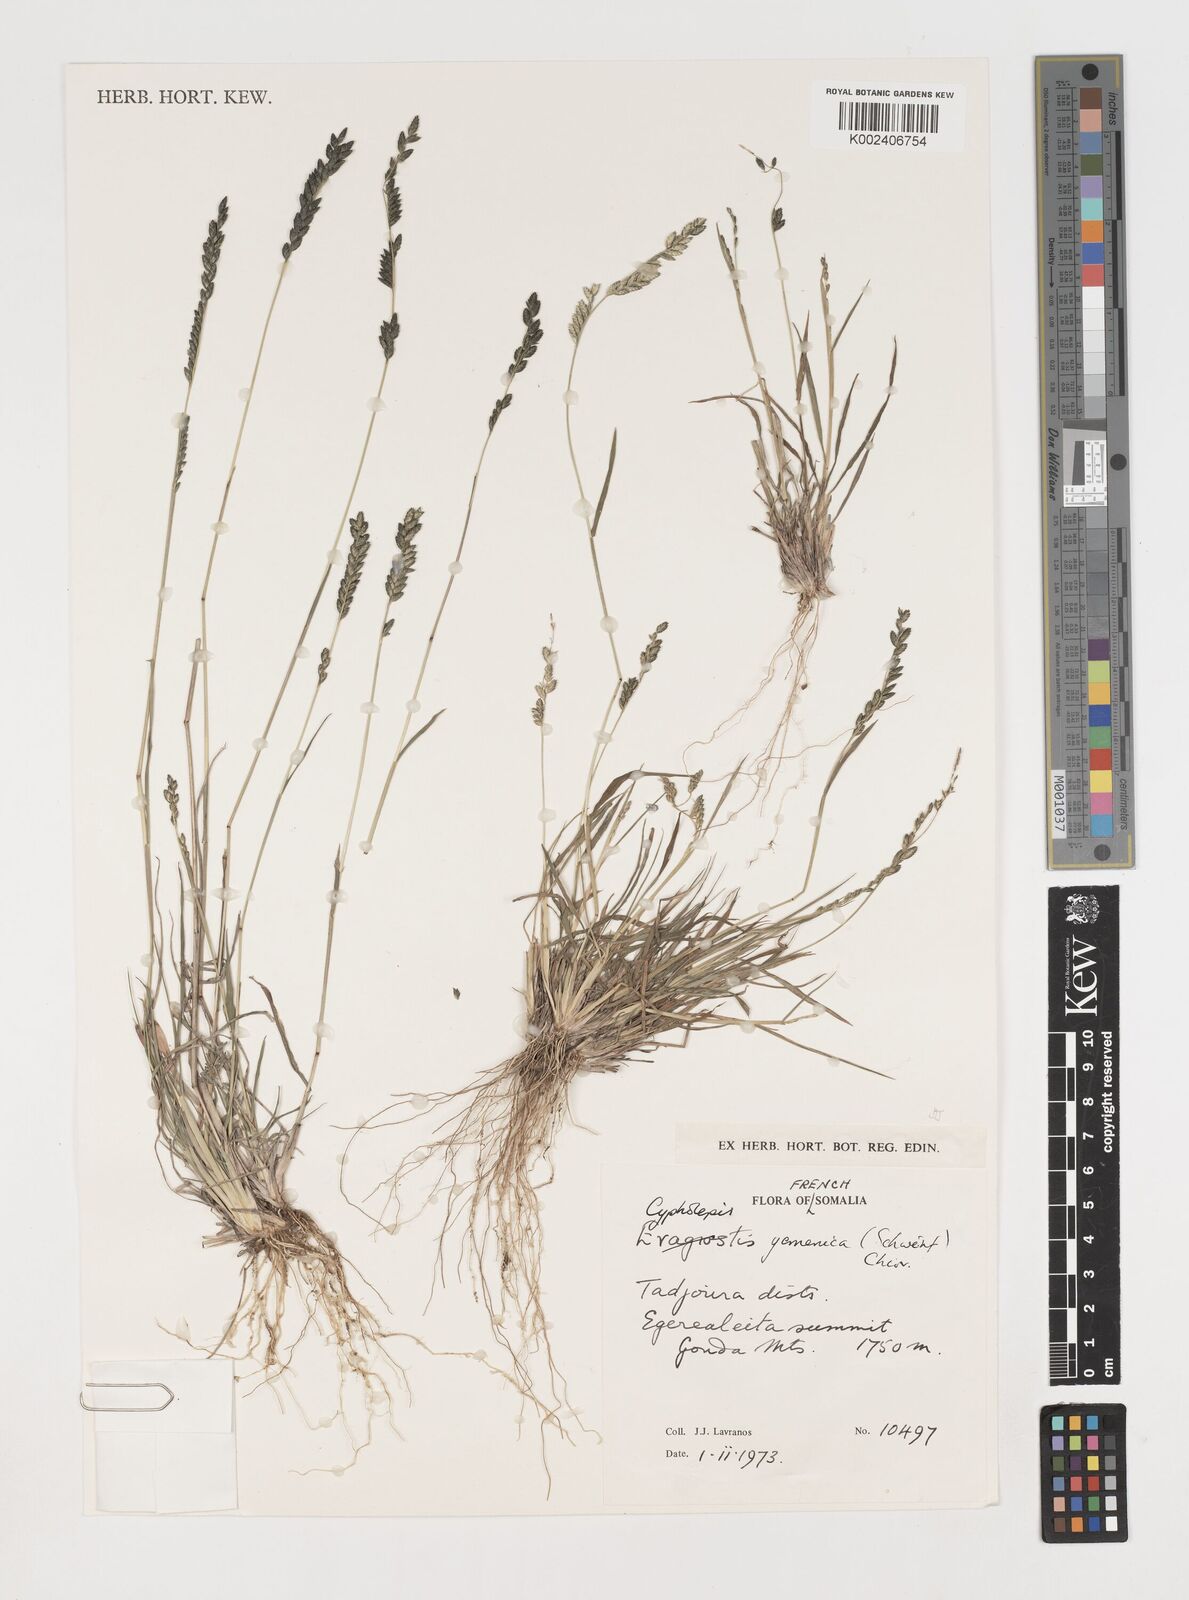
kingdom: Plantae
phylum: Tracheophyta
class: Liliopsida
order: Poales
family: Poaceae
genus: Disakisperma
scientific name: Disakisperma yemenicum
